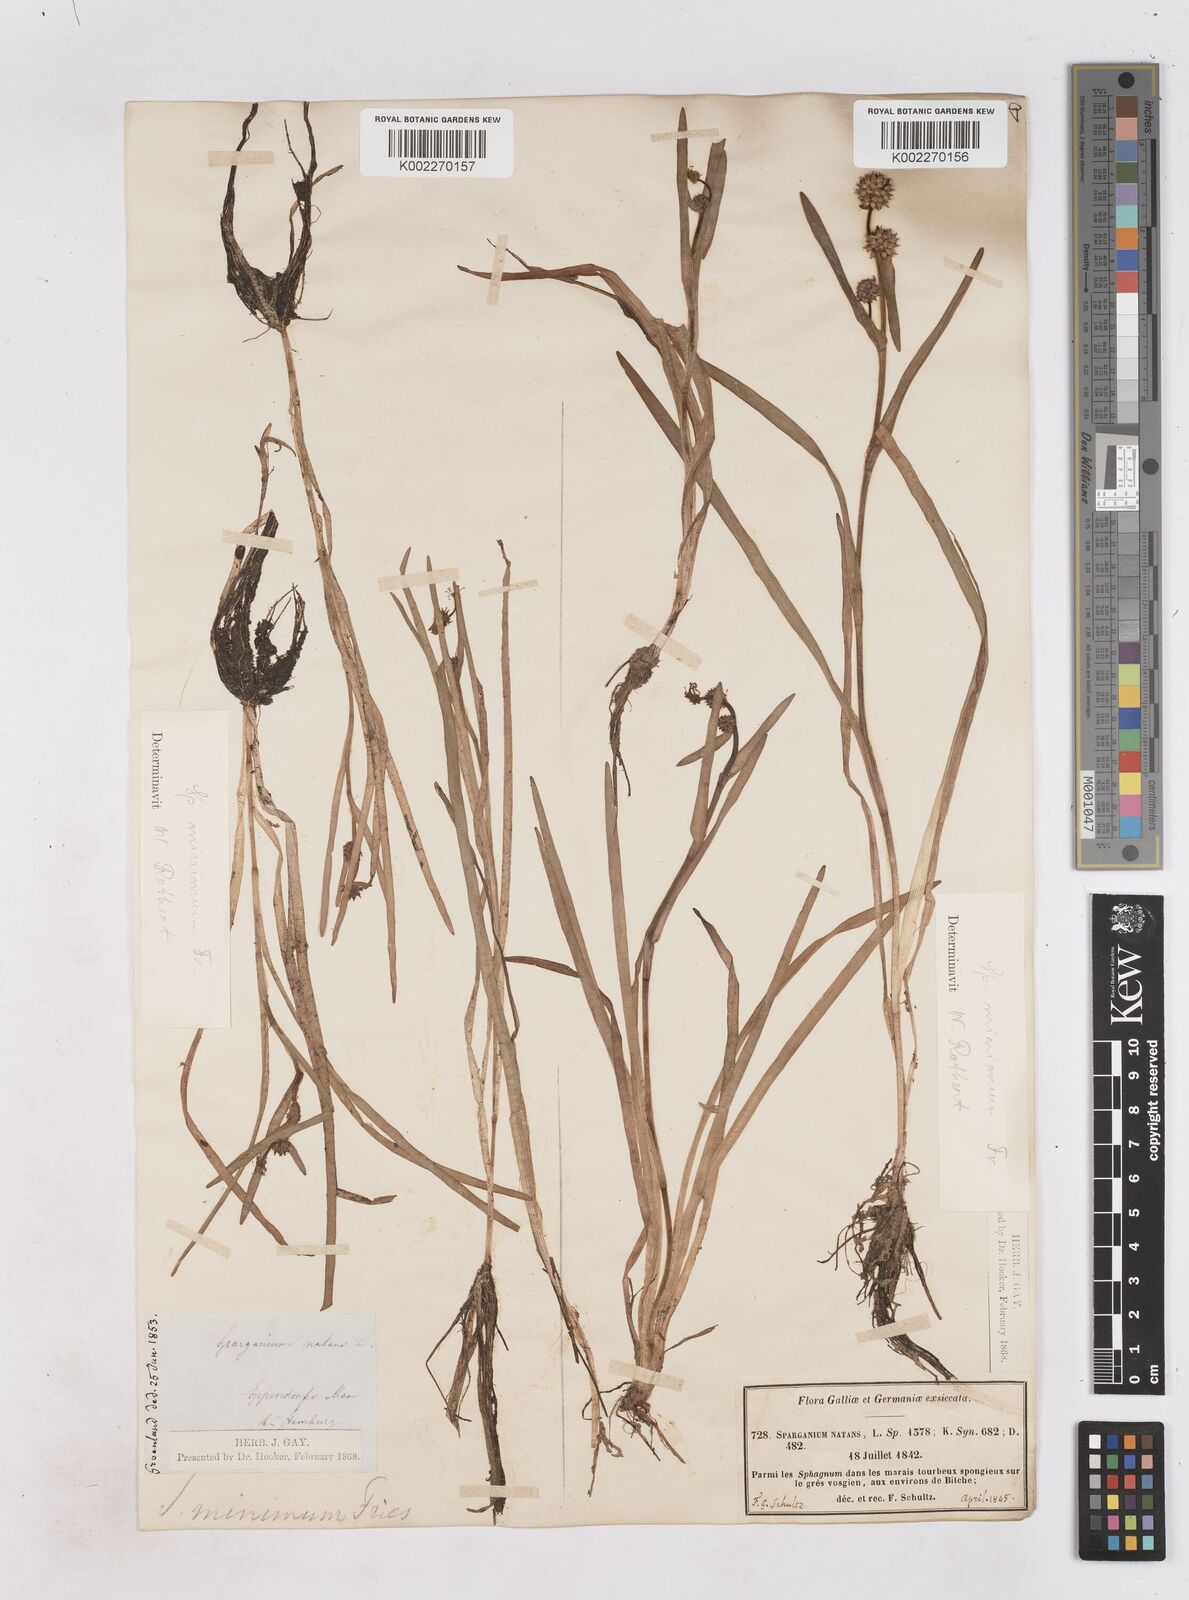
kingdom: Plantae
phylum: Tracheophyta
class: Liliopsida
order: Poales
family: Typhaceae
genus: Sparganium
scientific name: Sparganium natans
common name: Least bur-reed
